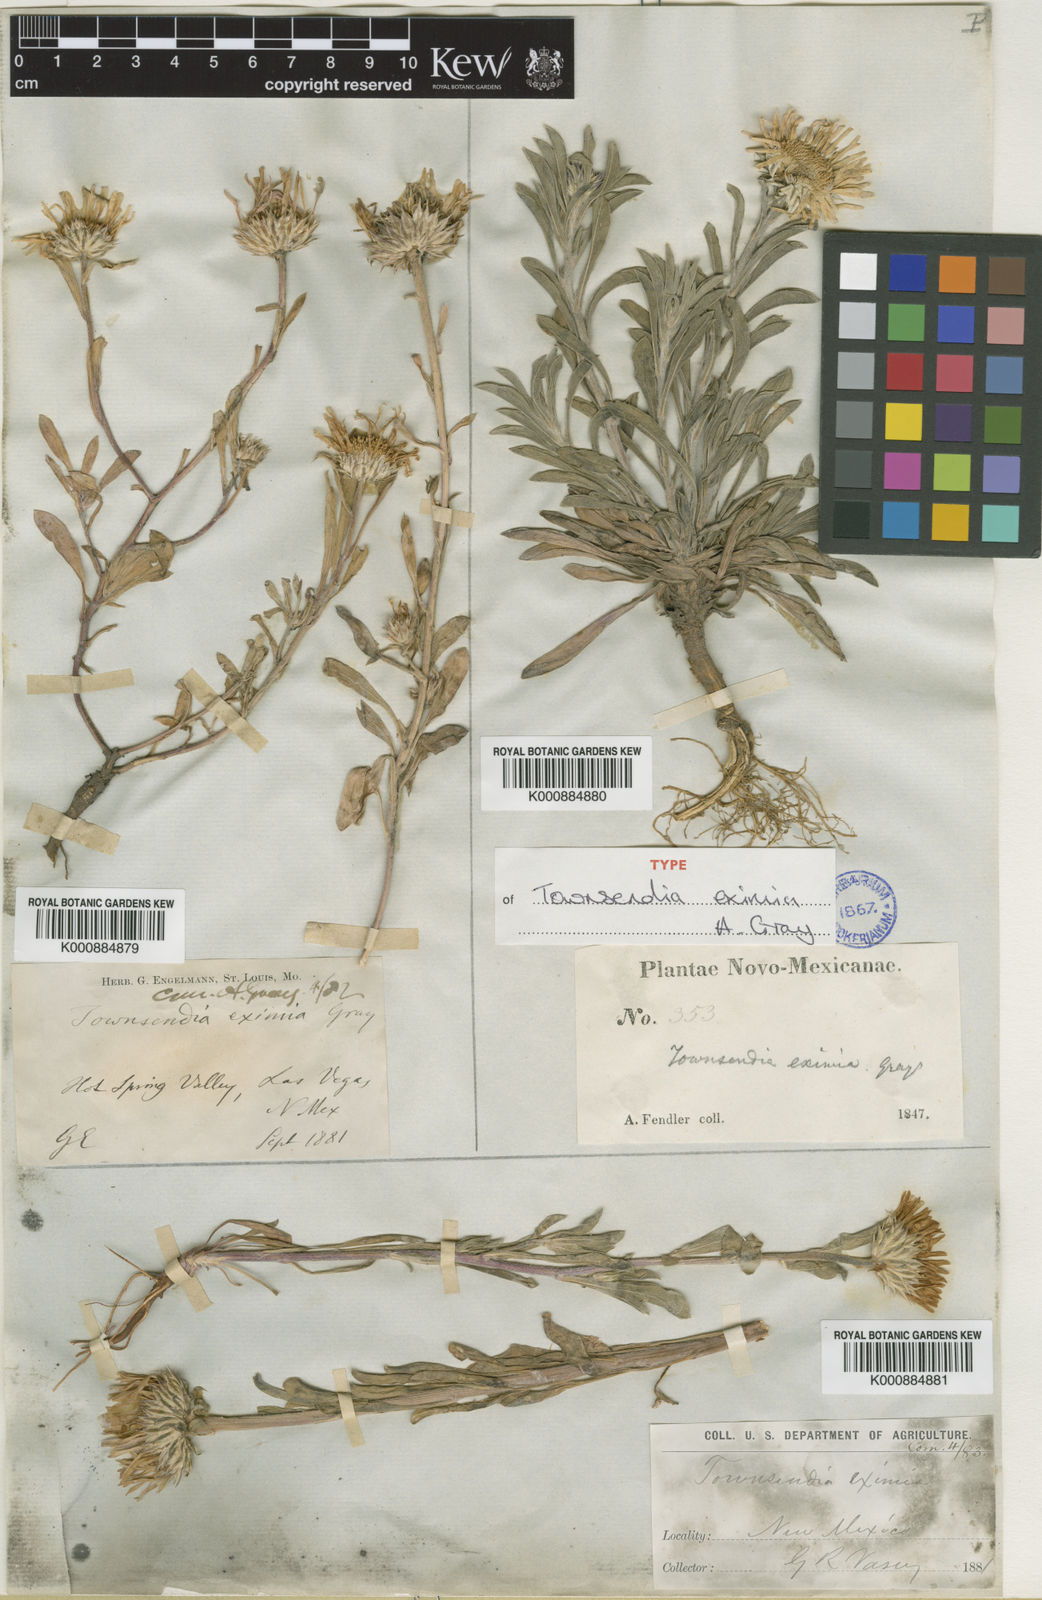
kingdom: Plantae
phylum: Tracheophyta
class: Magnoliopsida
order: Asterales
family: Asteraceae
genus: Townsendia
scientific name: Townsendia
